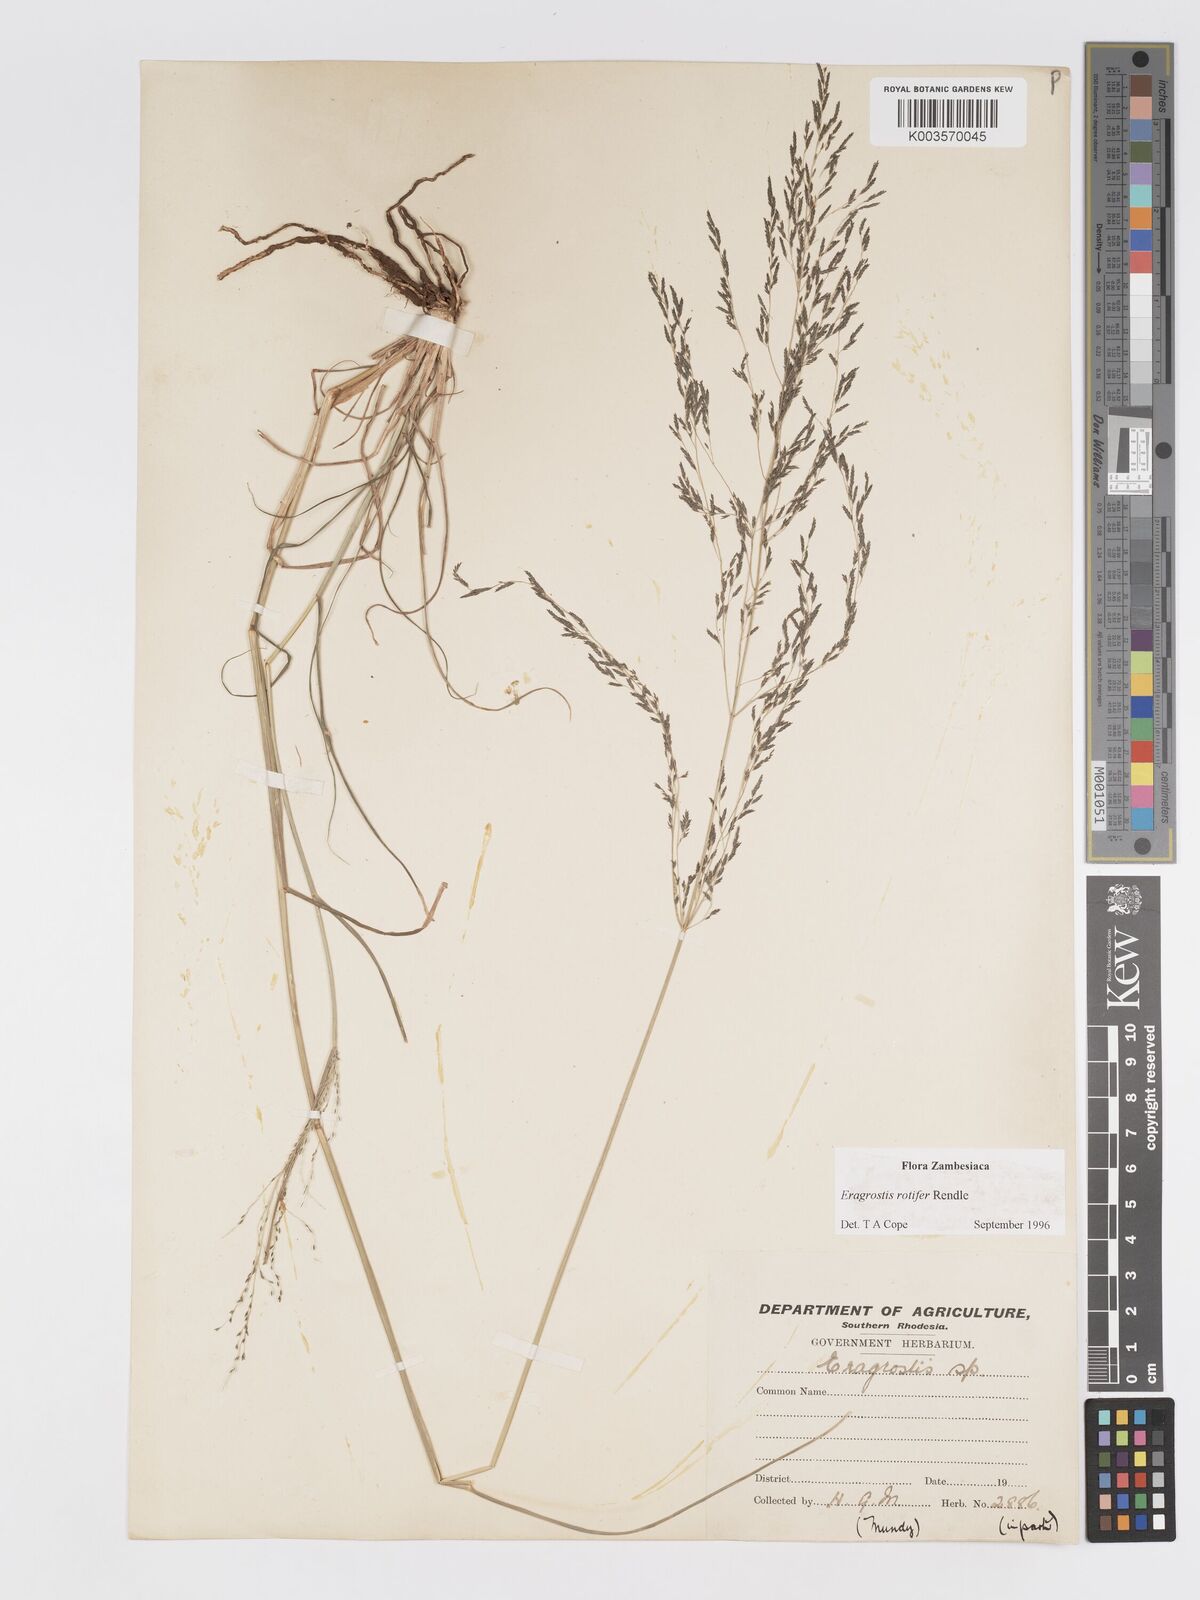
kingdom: Plantae
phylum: Tracheophyta
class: Liliopsida
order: Poales
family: Poaceae
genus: Eragrostis
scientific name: Eragrostis rotifer
